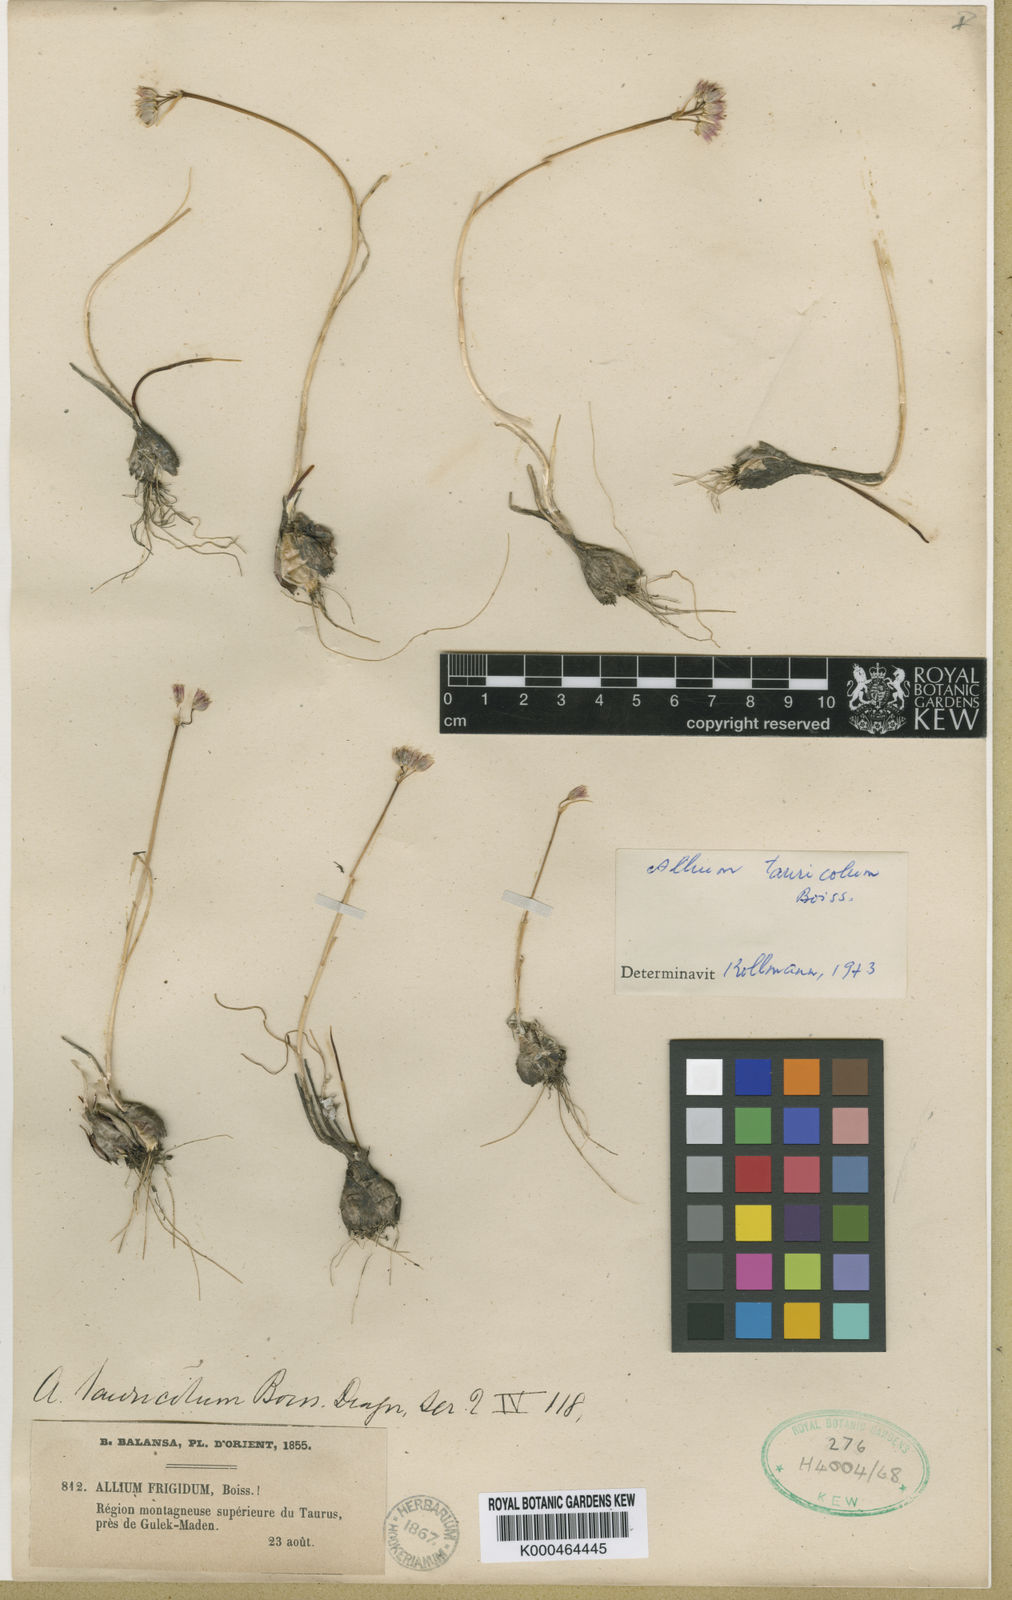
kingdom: Plantae
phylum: Tracheophyta
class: Liliopsida
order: Asparagales
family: Amaryllidaceae
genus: Allium
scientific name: Allium frigidum
